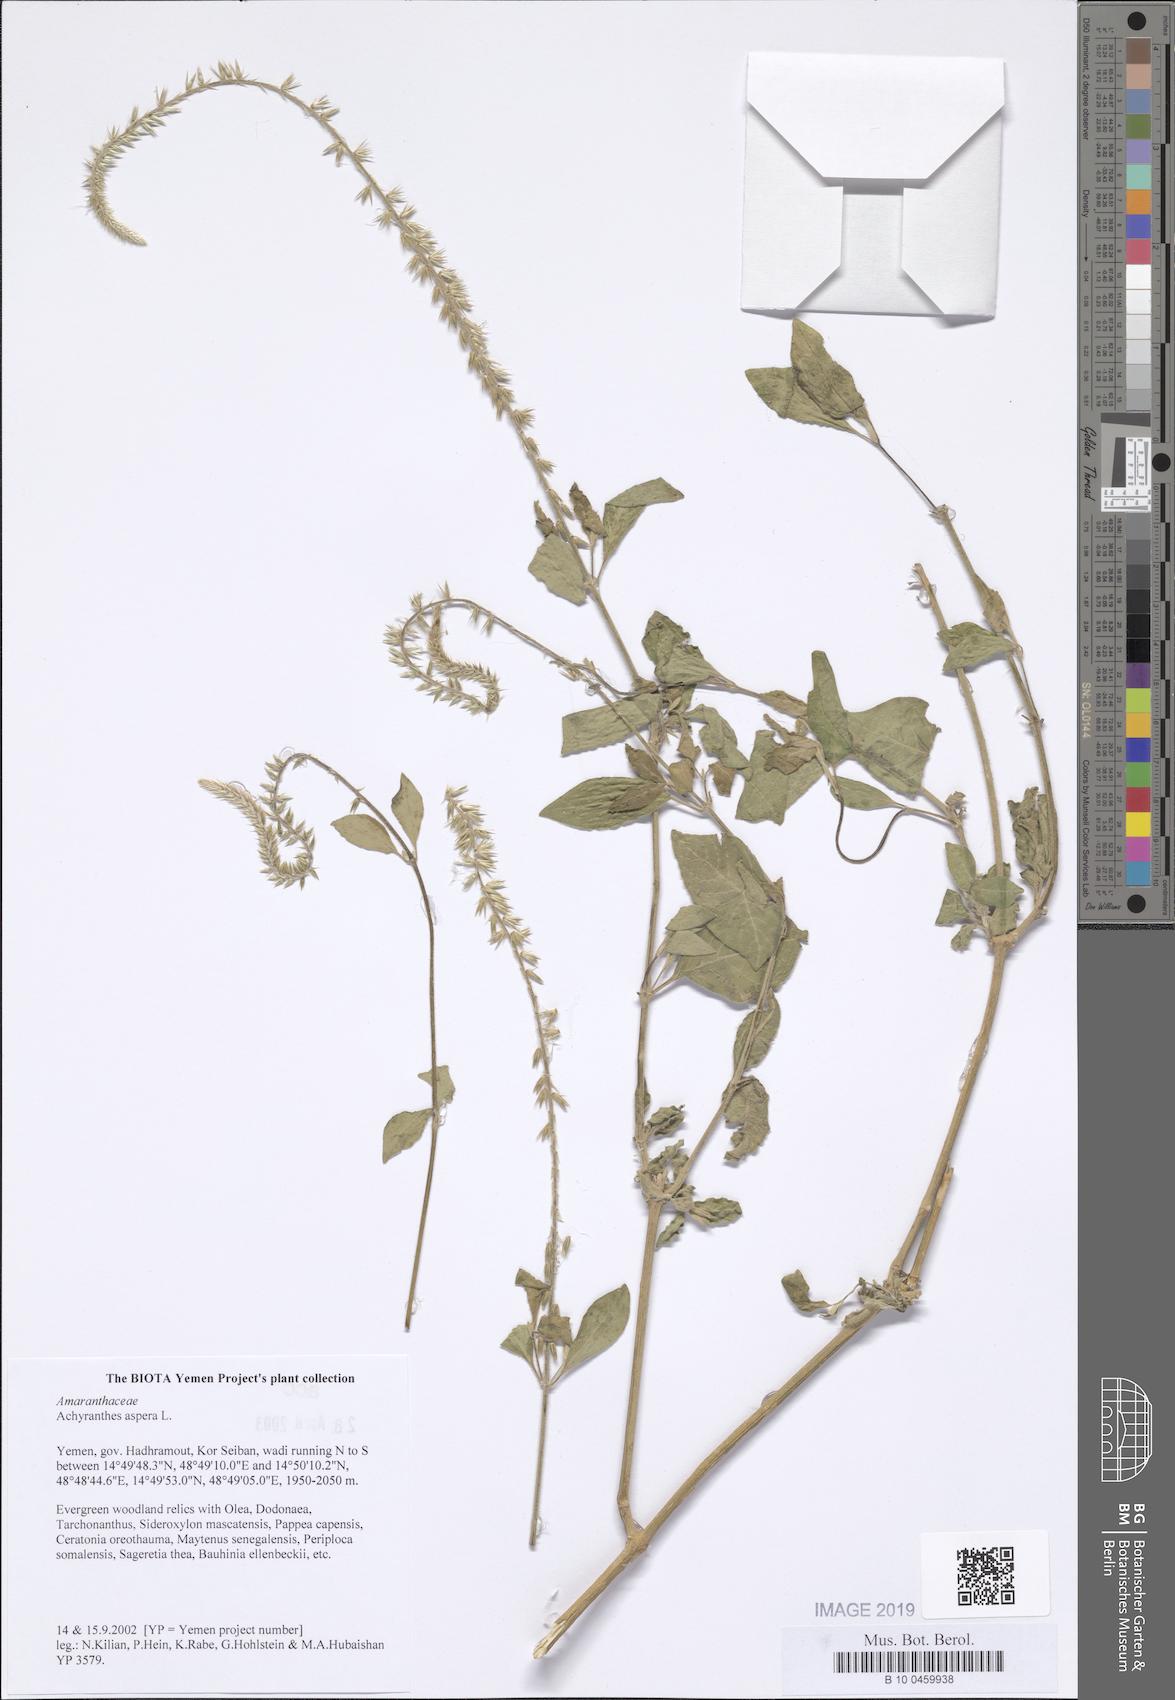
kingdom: Plantae
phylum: Tracheophyta
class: Magnoliopsida
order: Caryophyllales
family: Amaranthaceae
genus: Achyranthes
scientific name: Achyranthes aspera
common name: Devil's horsewhip
